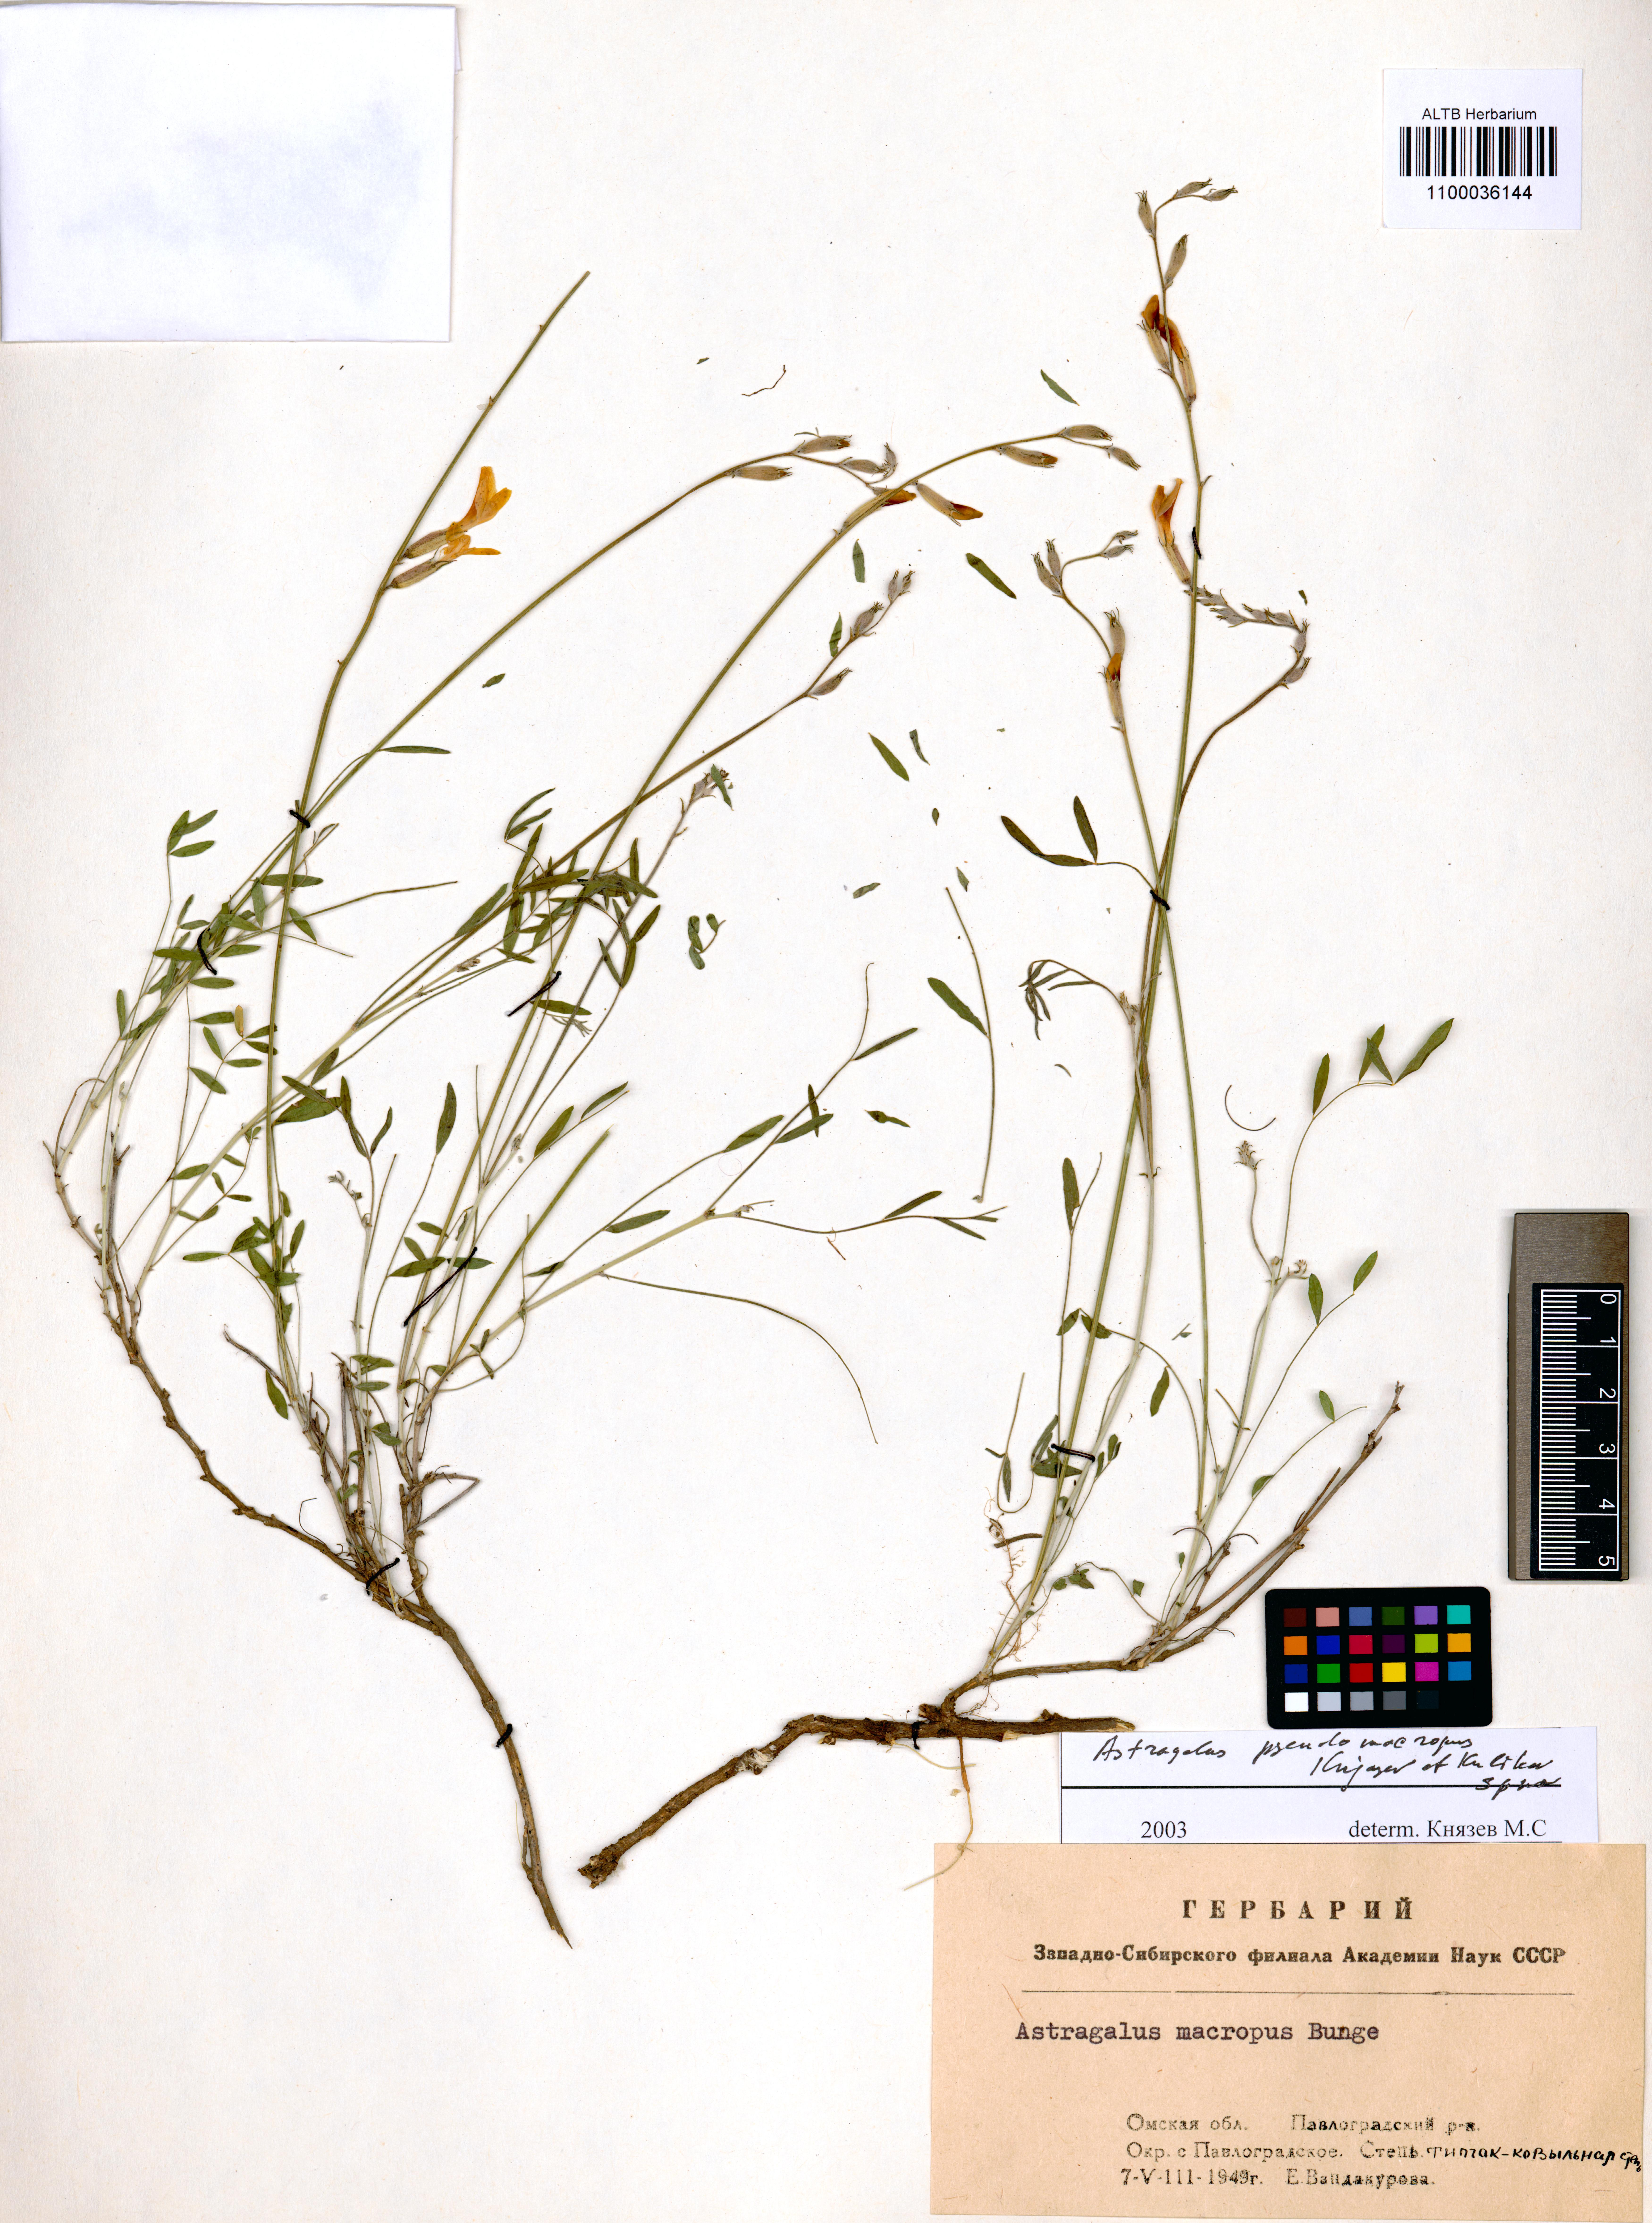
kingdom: Plantae
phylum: Tracheophyta
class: Magnoliopsida
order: Fabales
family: Fabaceae
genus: Astragalus
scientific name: Astragalus macropus
